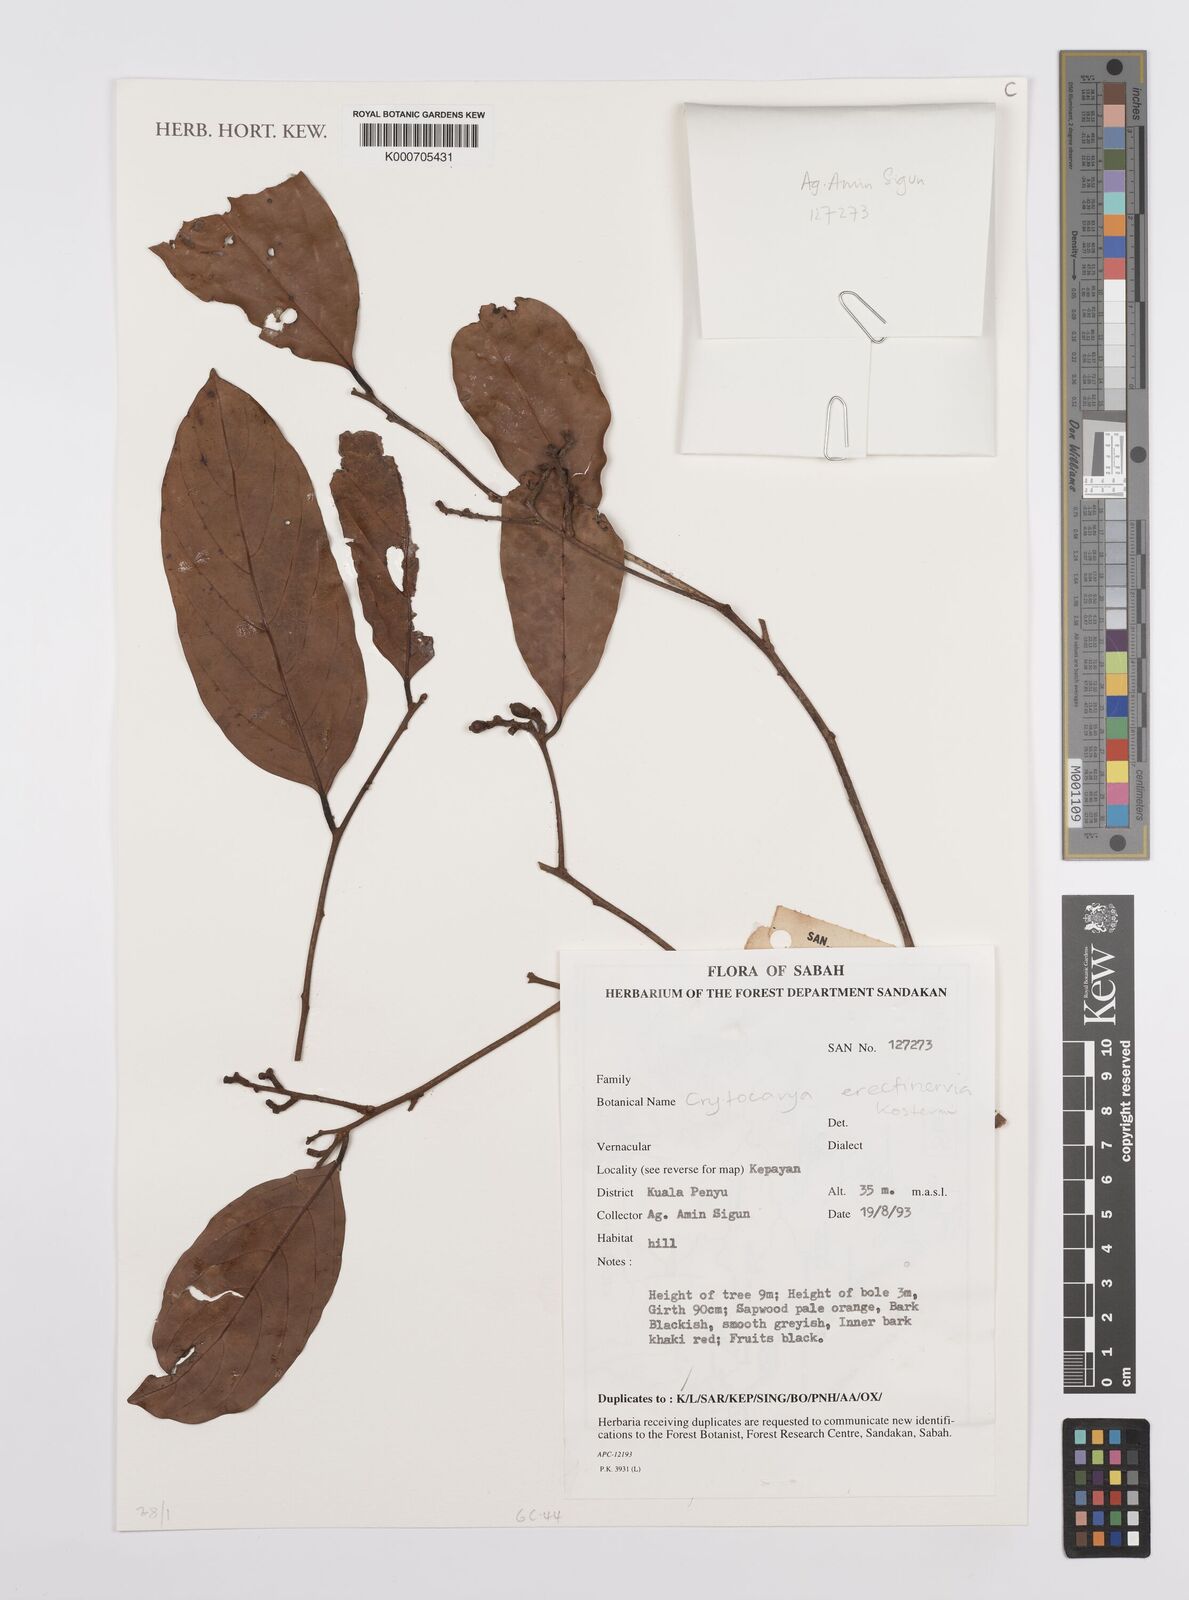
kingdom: Plantae
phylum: Tracheophyta
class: Magnoliopsida
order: Laurales
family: Lauraceae
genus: Cryptocarya
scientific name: Cryptocarya
